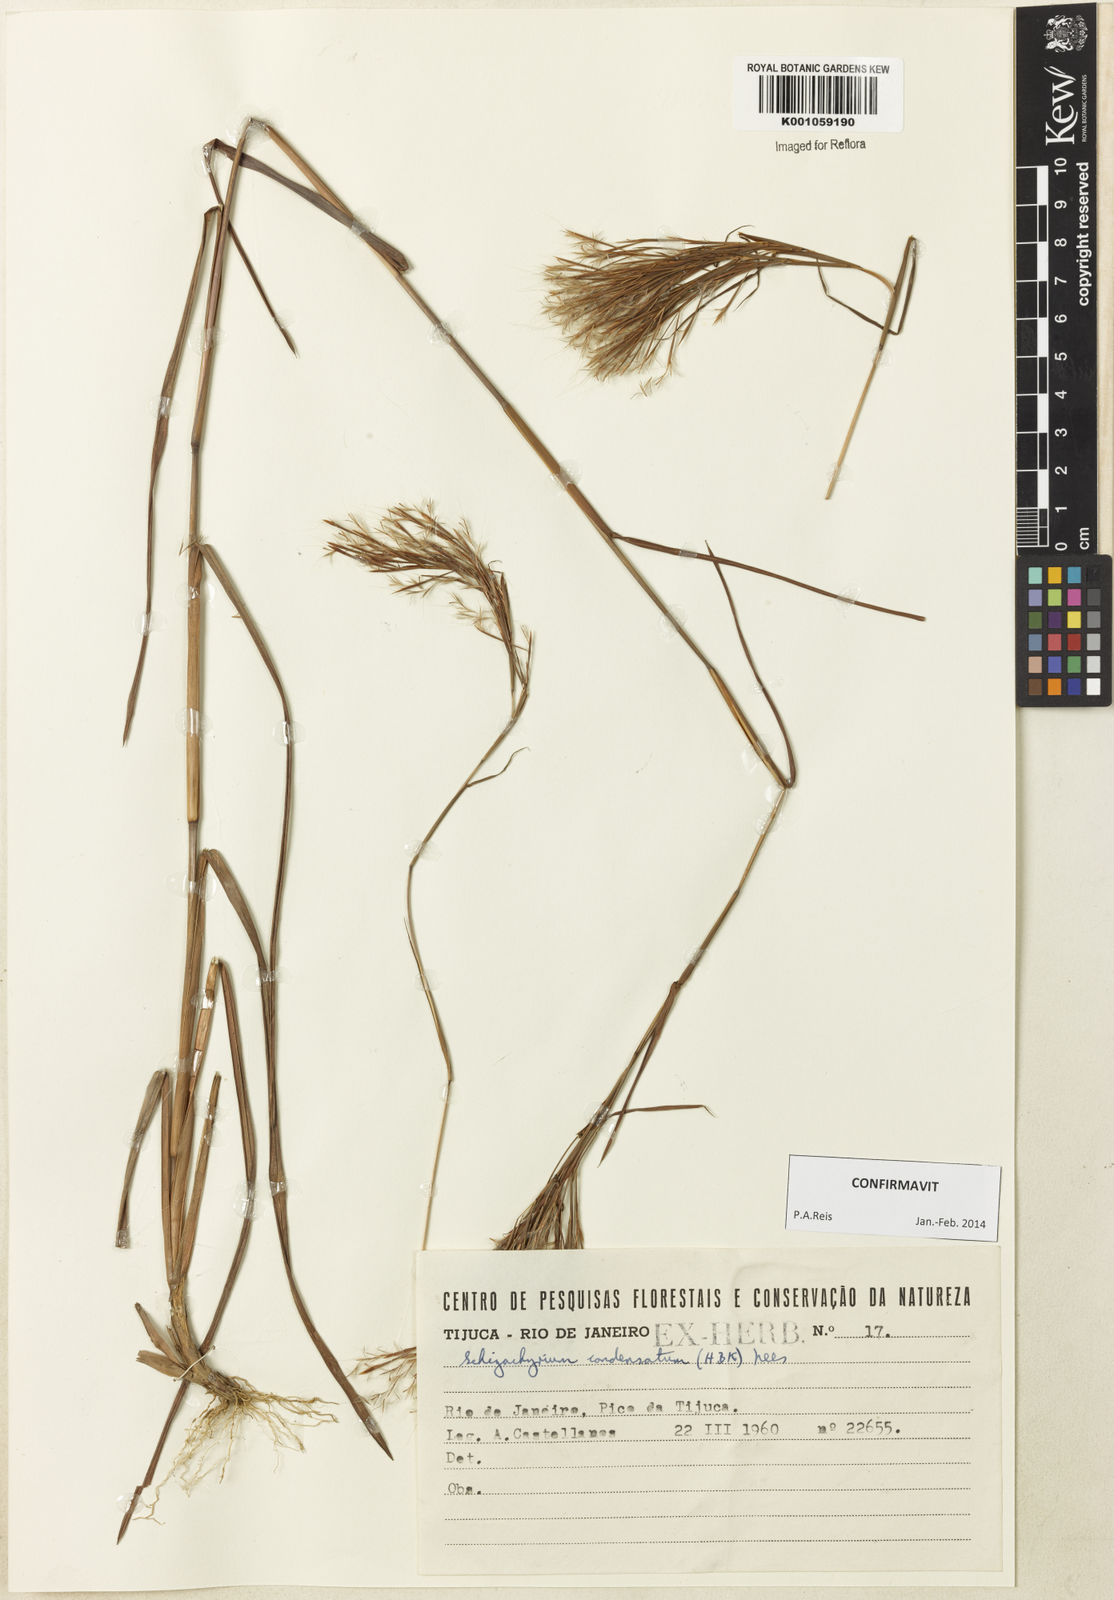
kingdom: Plantae
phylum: Tracheophyta
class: Liliopsida
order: Poales
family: Poaceae
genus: Schizachyrium
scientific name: Schizachyrium condensatum
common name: Bush beardgrass
